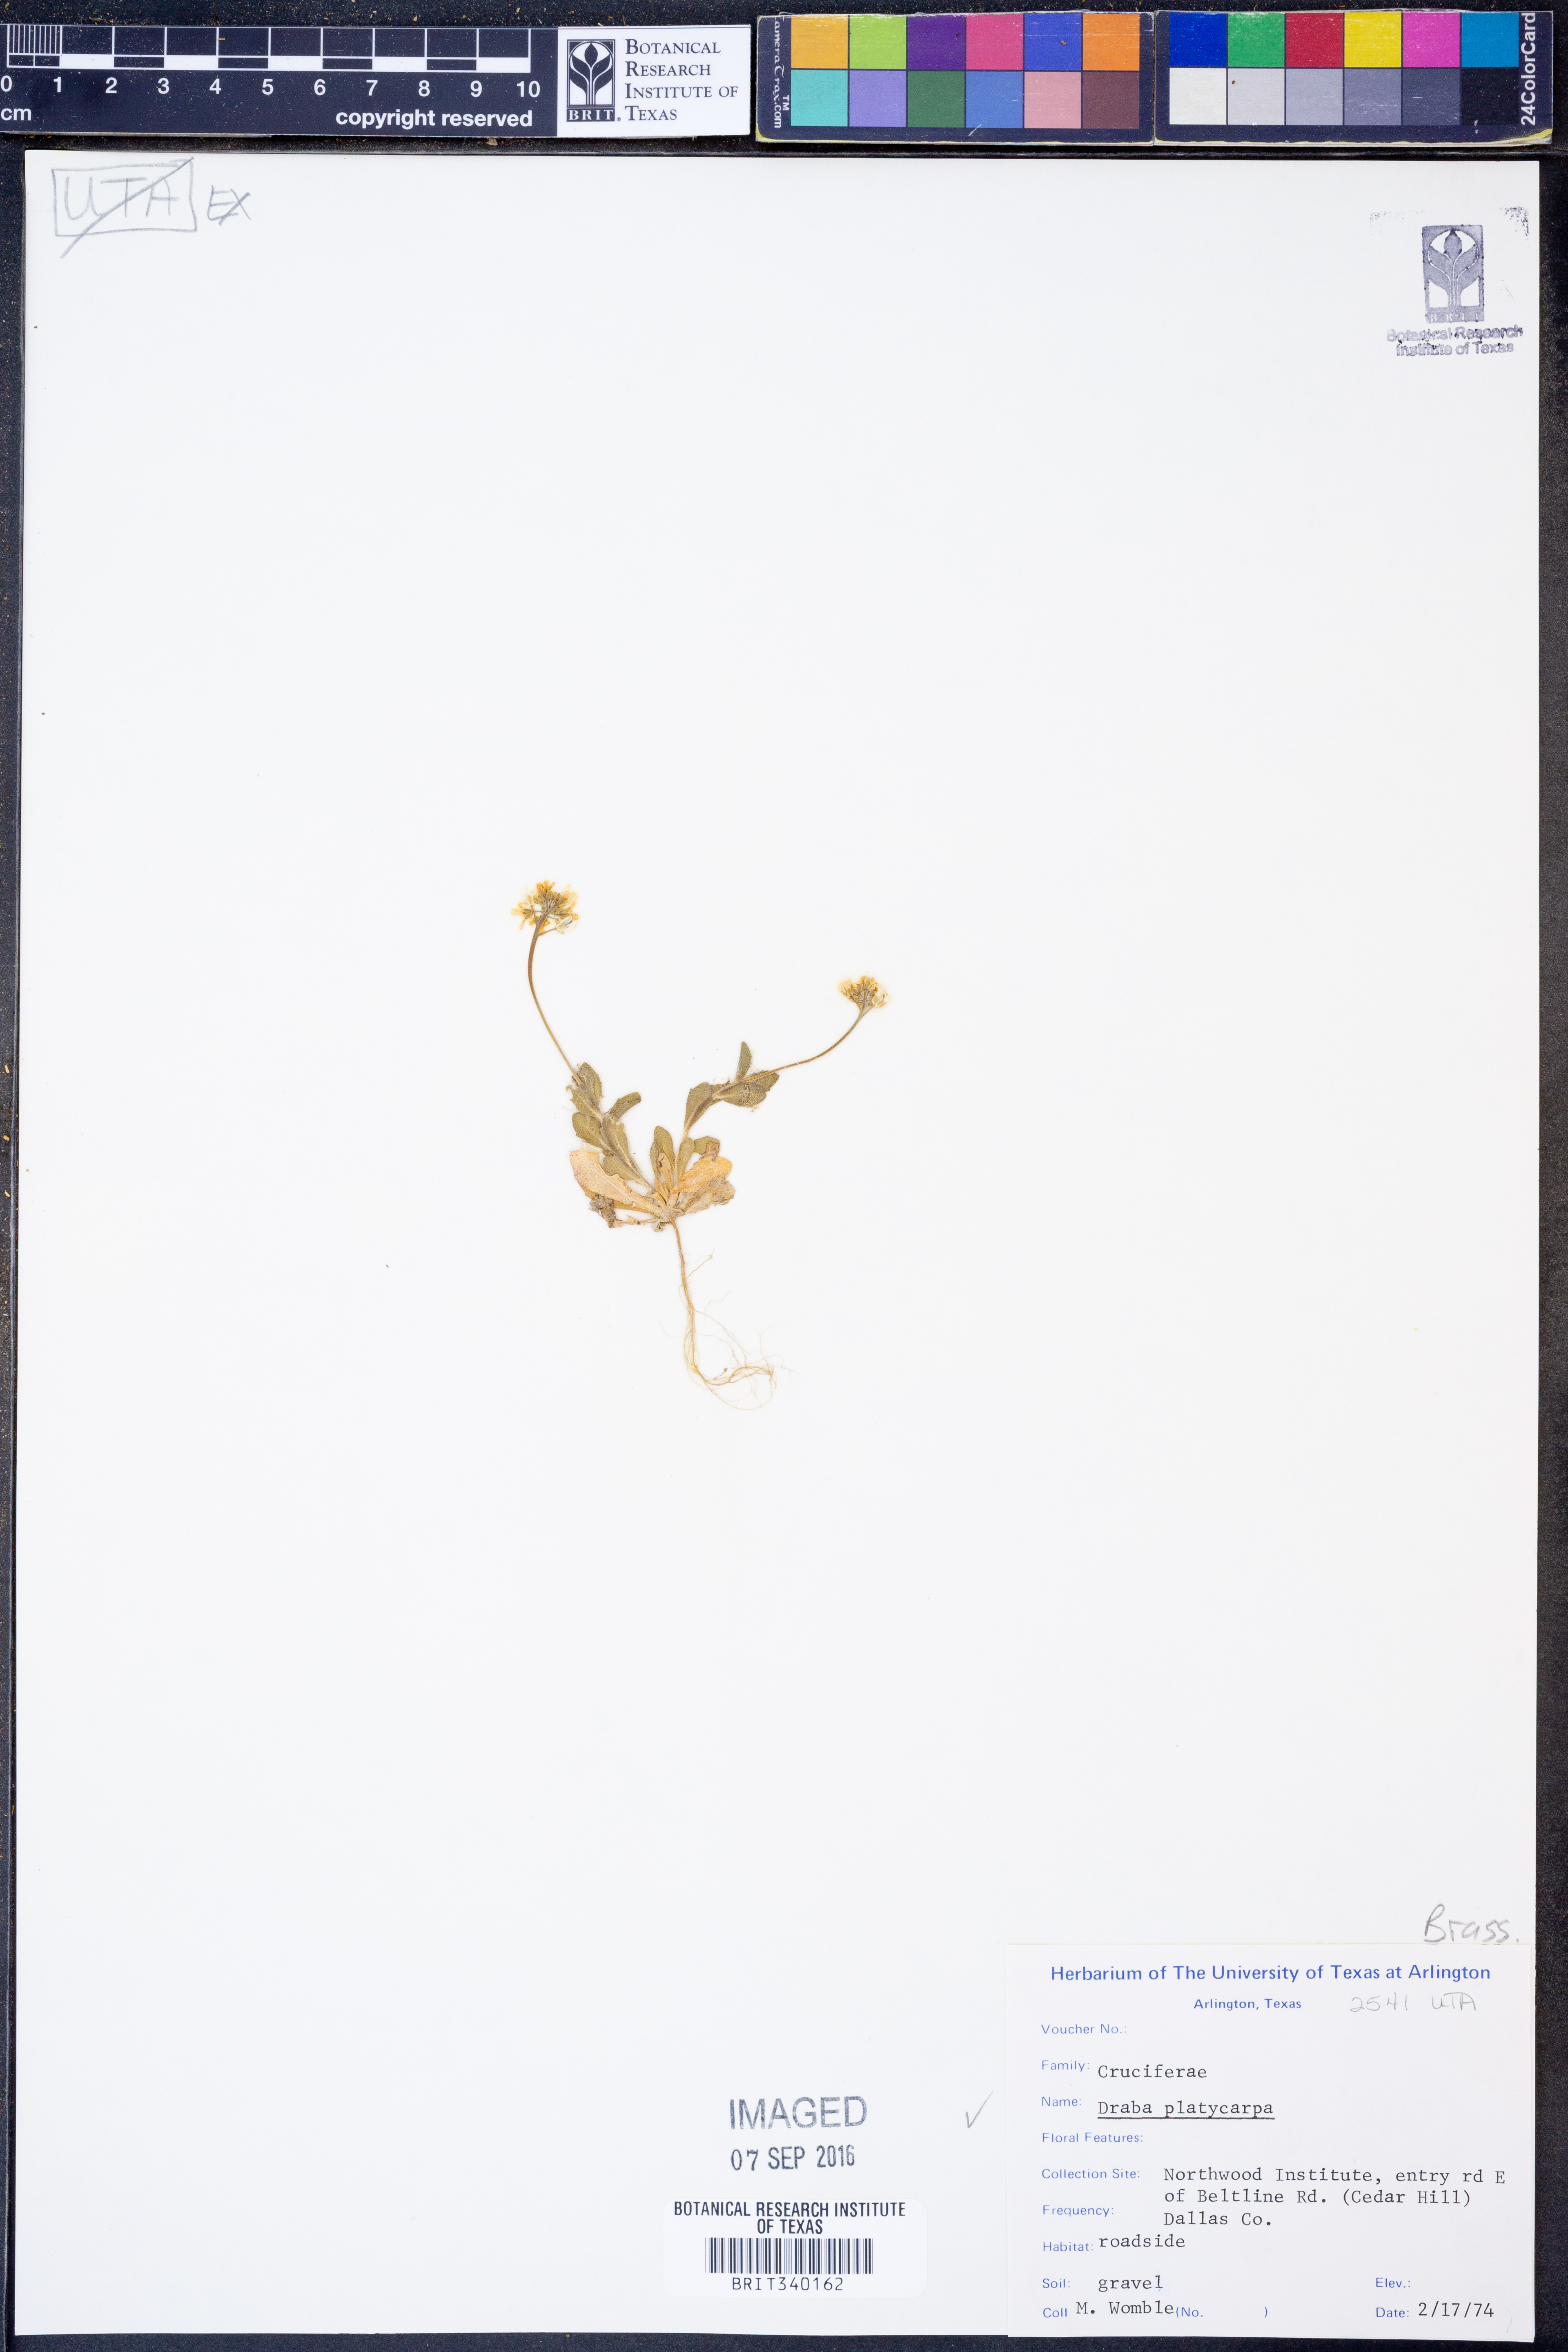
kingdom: Plantae
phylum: Tracheophyta
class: Magnoliopsida
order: Brassicales
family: Brassicaceae
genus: Tomostima
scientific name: Tomostima platycarpa
